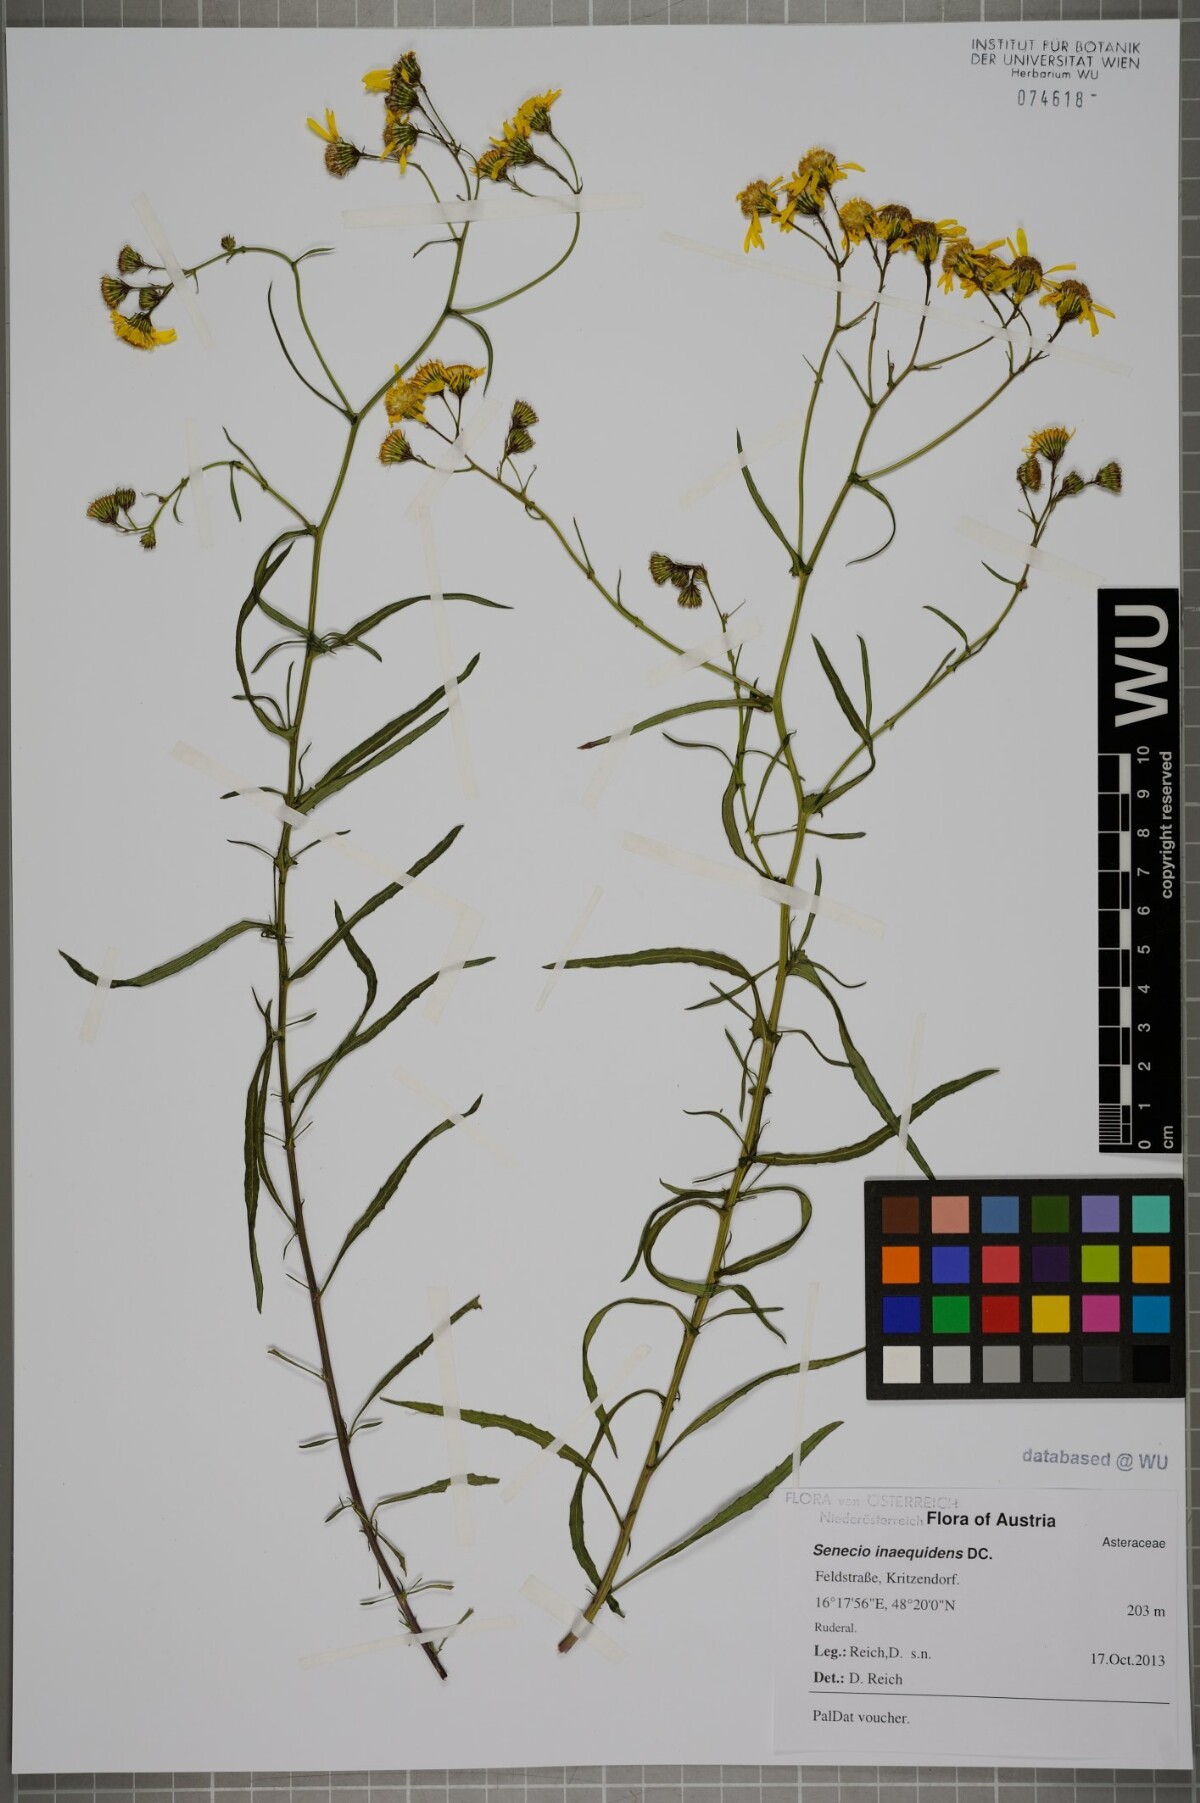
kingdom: Plantae
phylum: Tracheophyta
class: Magnoliopsida
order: Asterales
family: Asteraceae
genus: Senecio
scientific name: Senecio inaequidens
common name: Narrow-leaved ragwort
